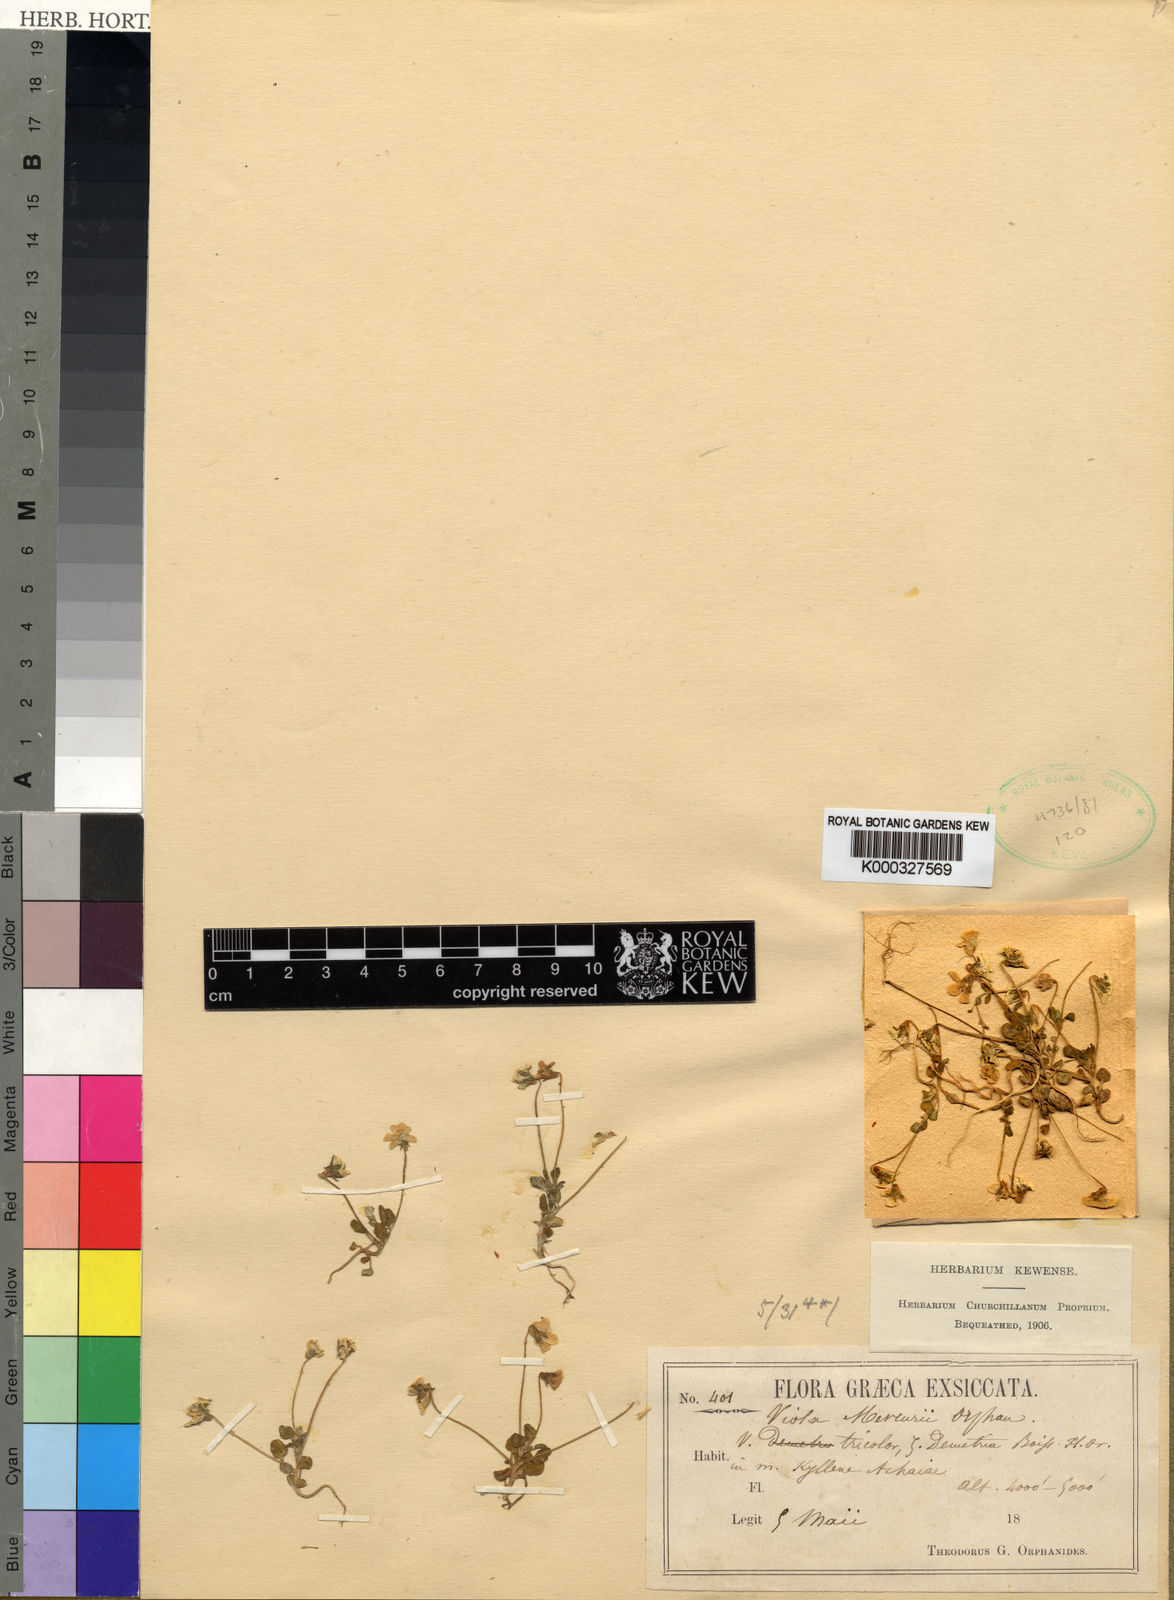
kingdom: Plantae
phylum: Tracheophyta
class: Magnoliopsida
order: Malpighiales
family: Violaceae
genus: Viola
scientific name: Viola
